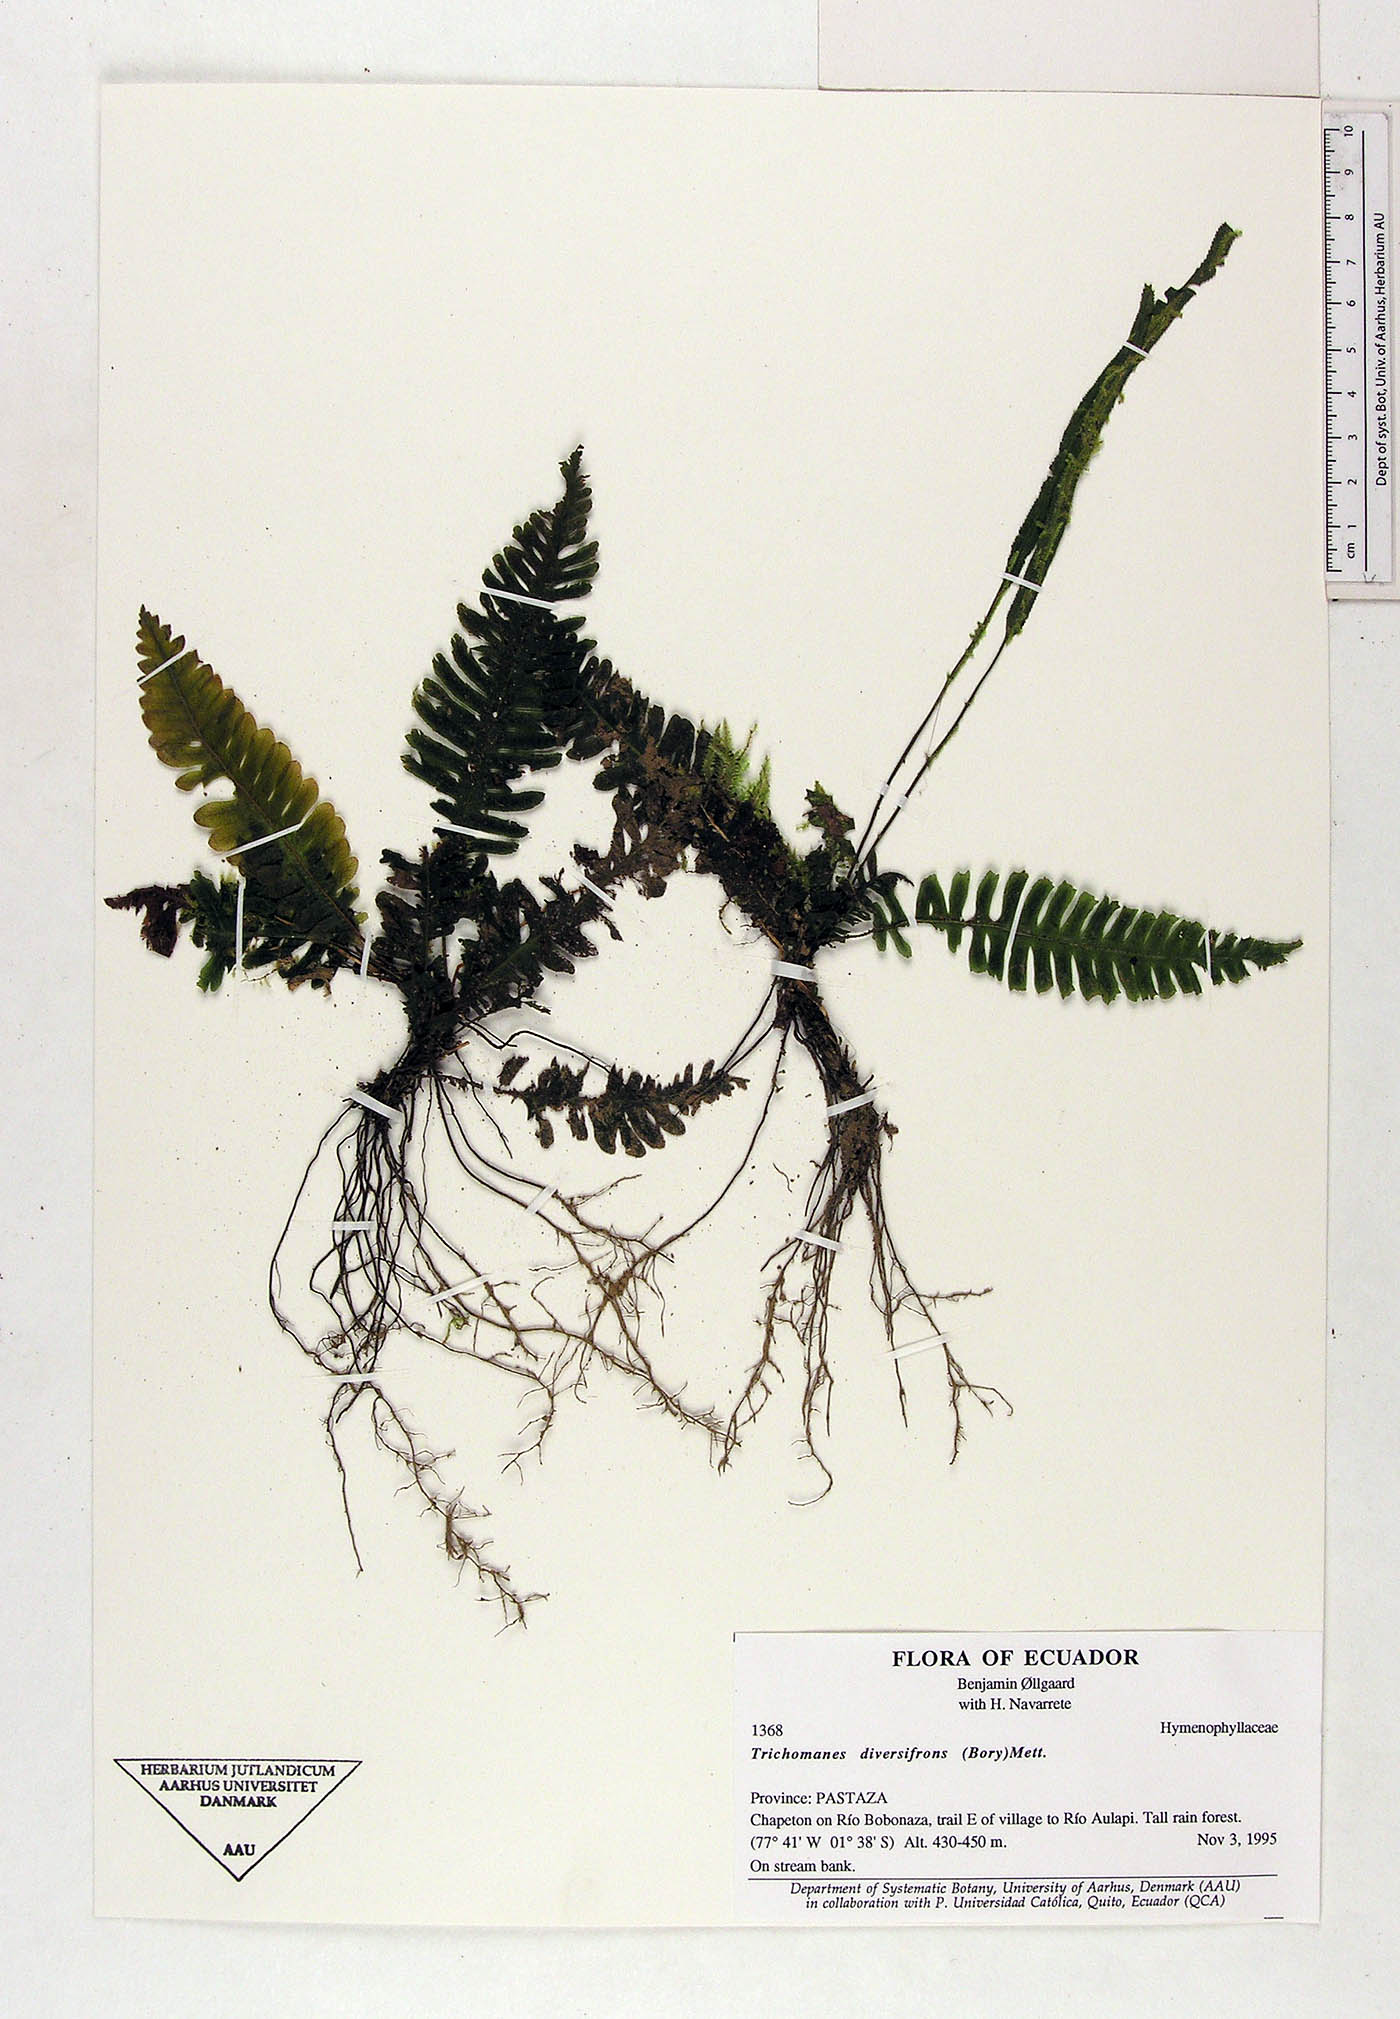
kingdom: Plantae
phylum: Tracheophyta
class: Polypodiopsida
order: Hymenophyllales
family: Hymenophyllaceae
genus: Trichomanes
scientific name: Trichomanes diversifrons
